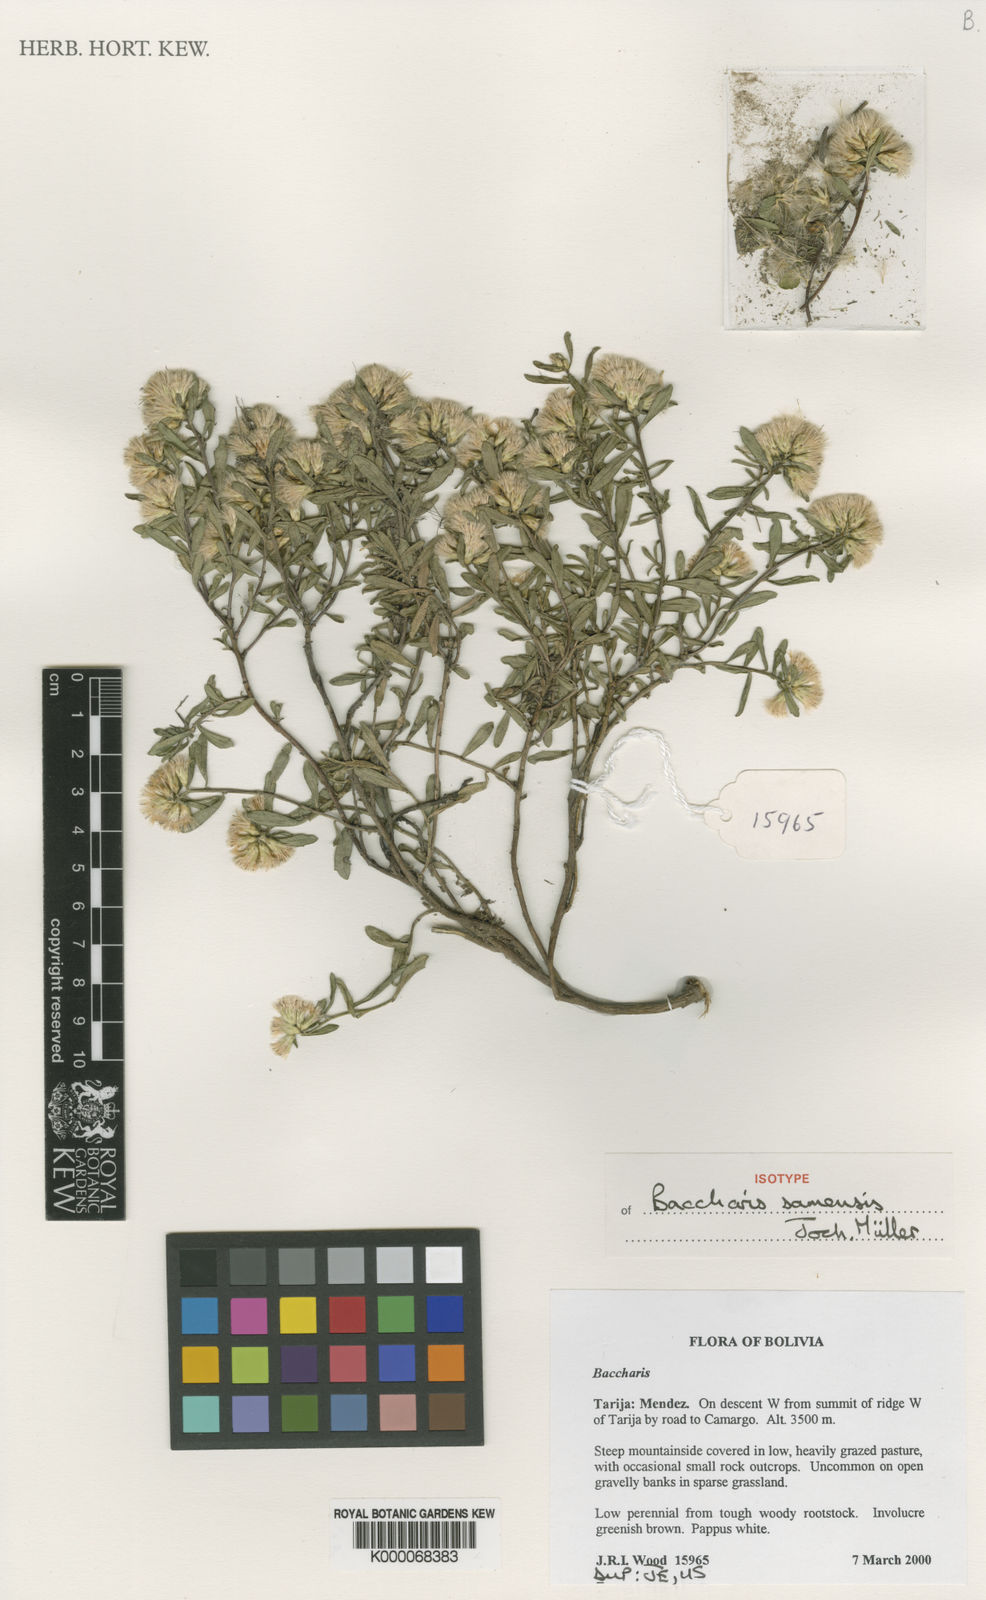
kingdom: Plantae
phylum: Tracheophyta
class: Magnoliopsida
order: Asterales
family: Asteraceae
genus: Baccharis
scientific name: Baccharis
